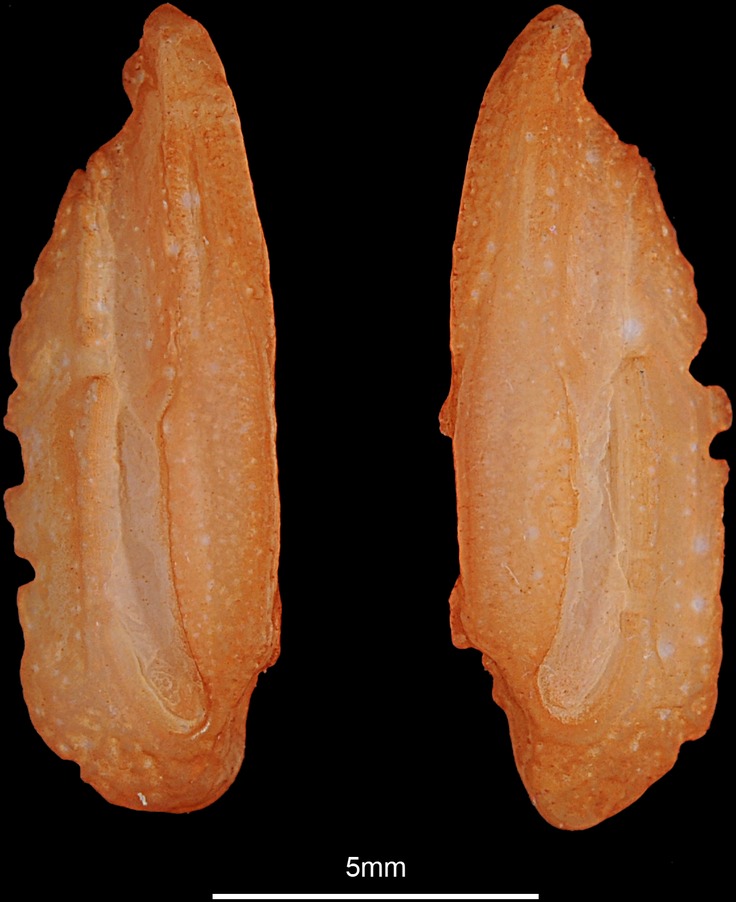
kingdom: Animalia
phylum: Chordata
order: Perciformes
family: Percidae
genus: Sander
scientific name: Sander lucioperca
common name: Pikeperch
